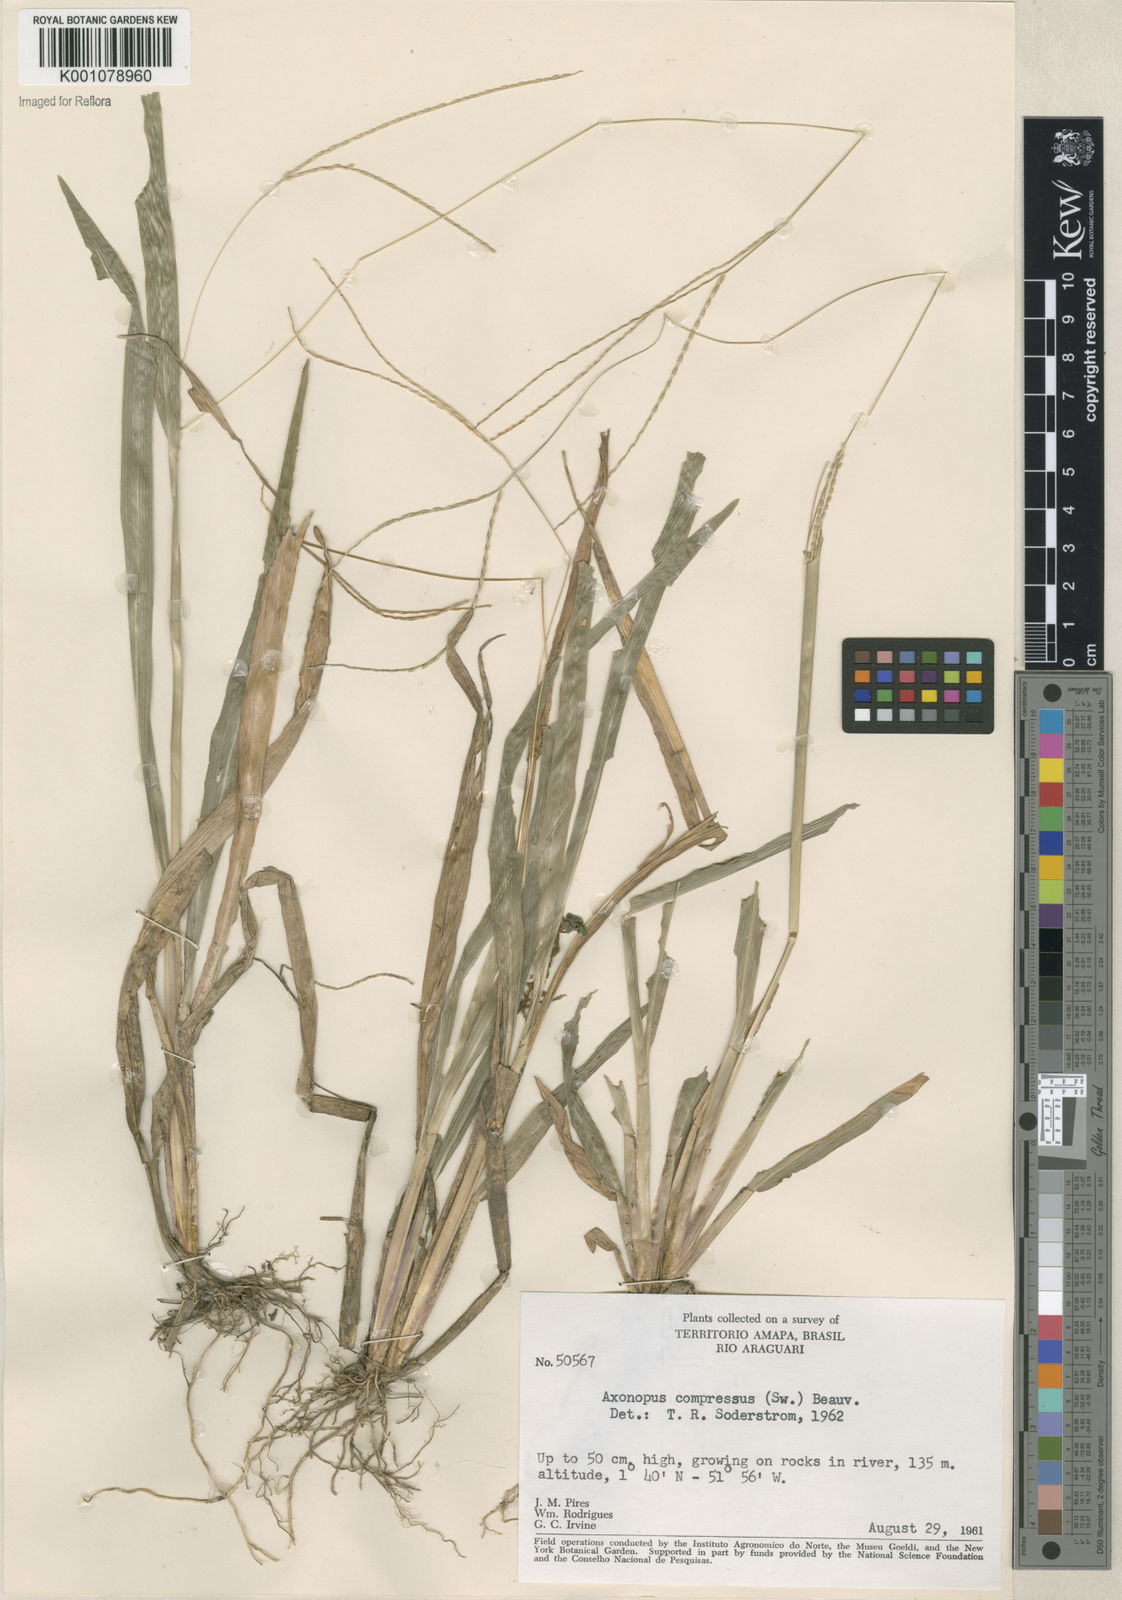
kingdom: Plantae
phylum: Tracheophyta
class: Liliopsida
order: Poales
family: Poaceae
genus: Axonopus
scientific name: Axonopus compressus
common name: American carpet grass
